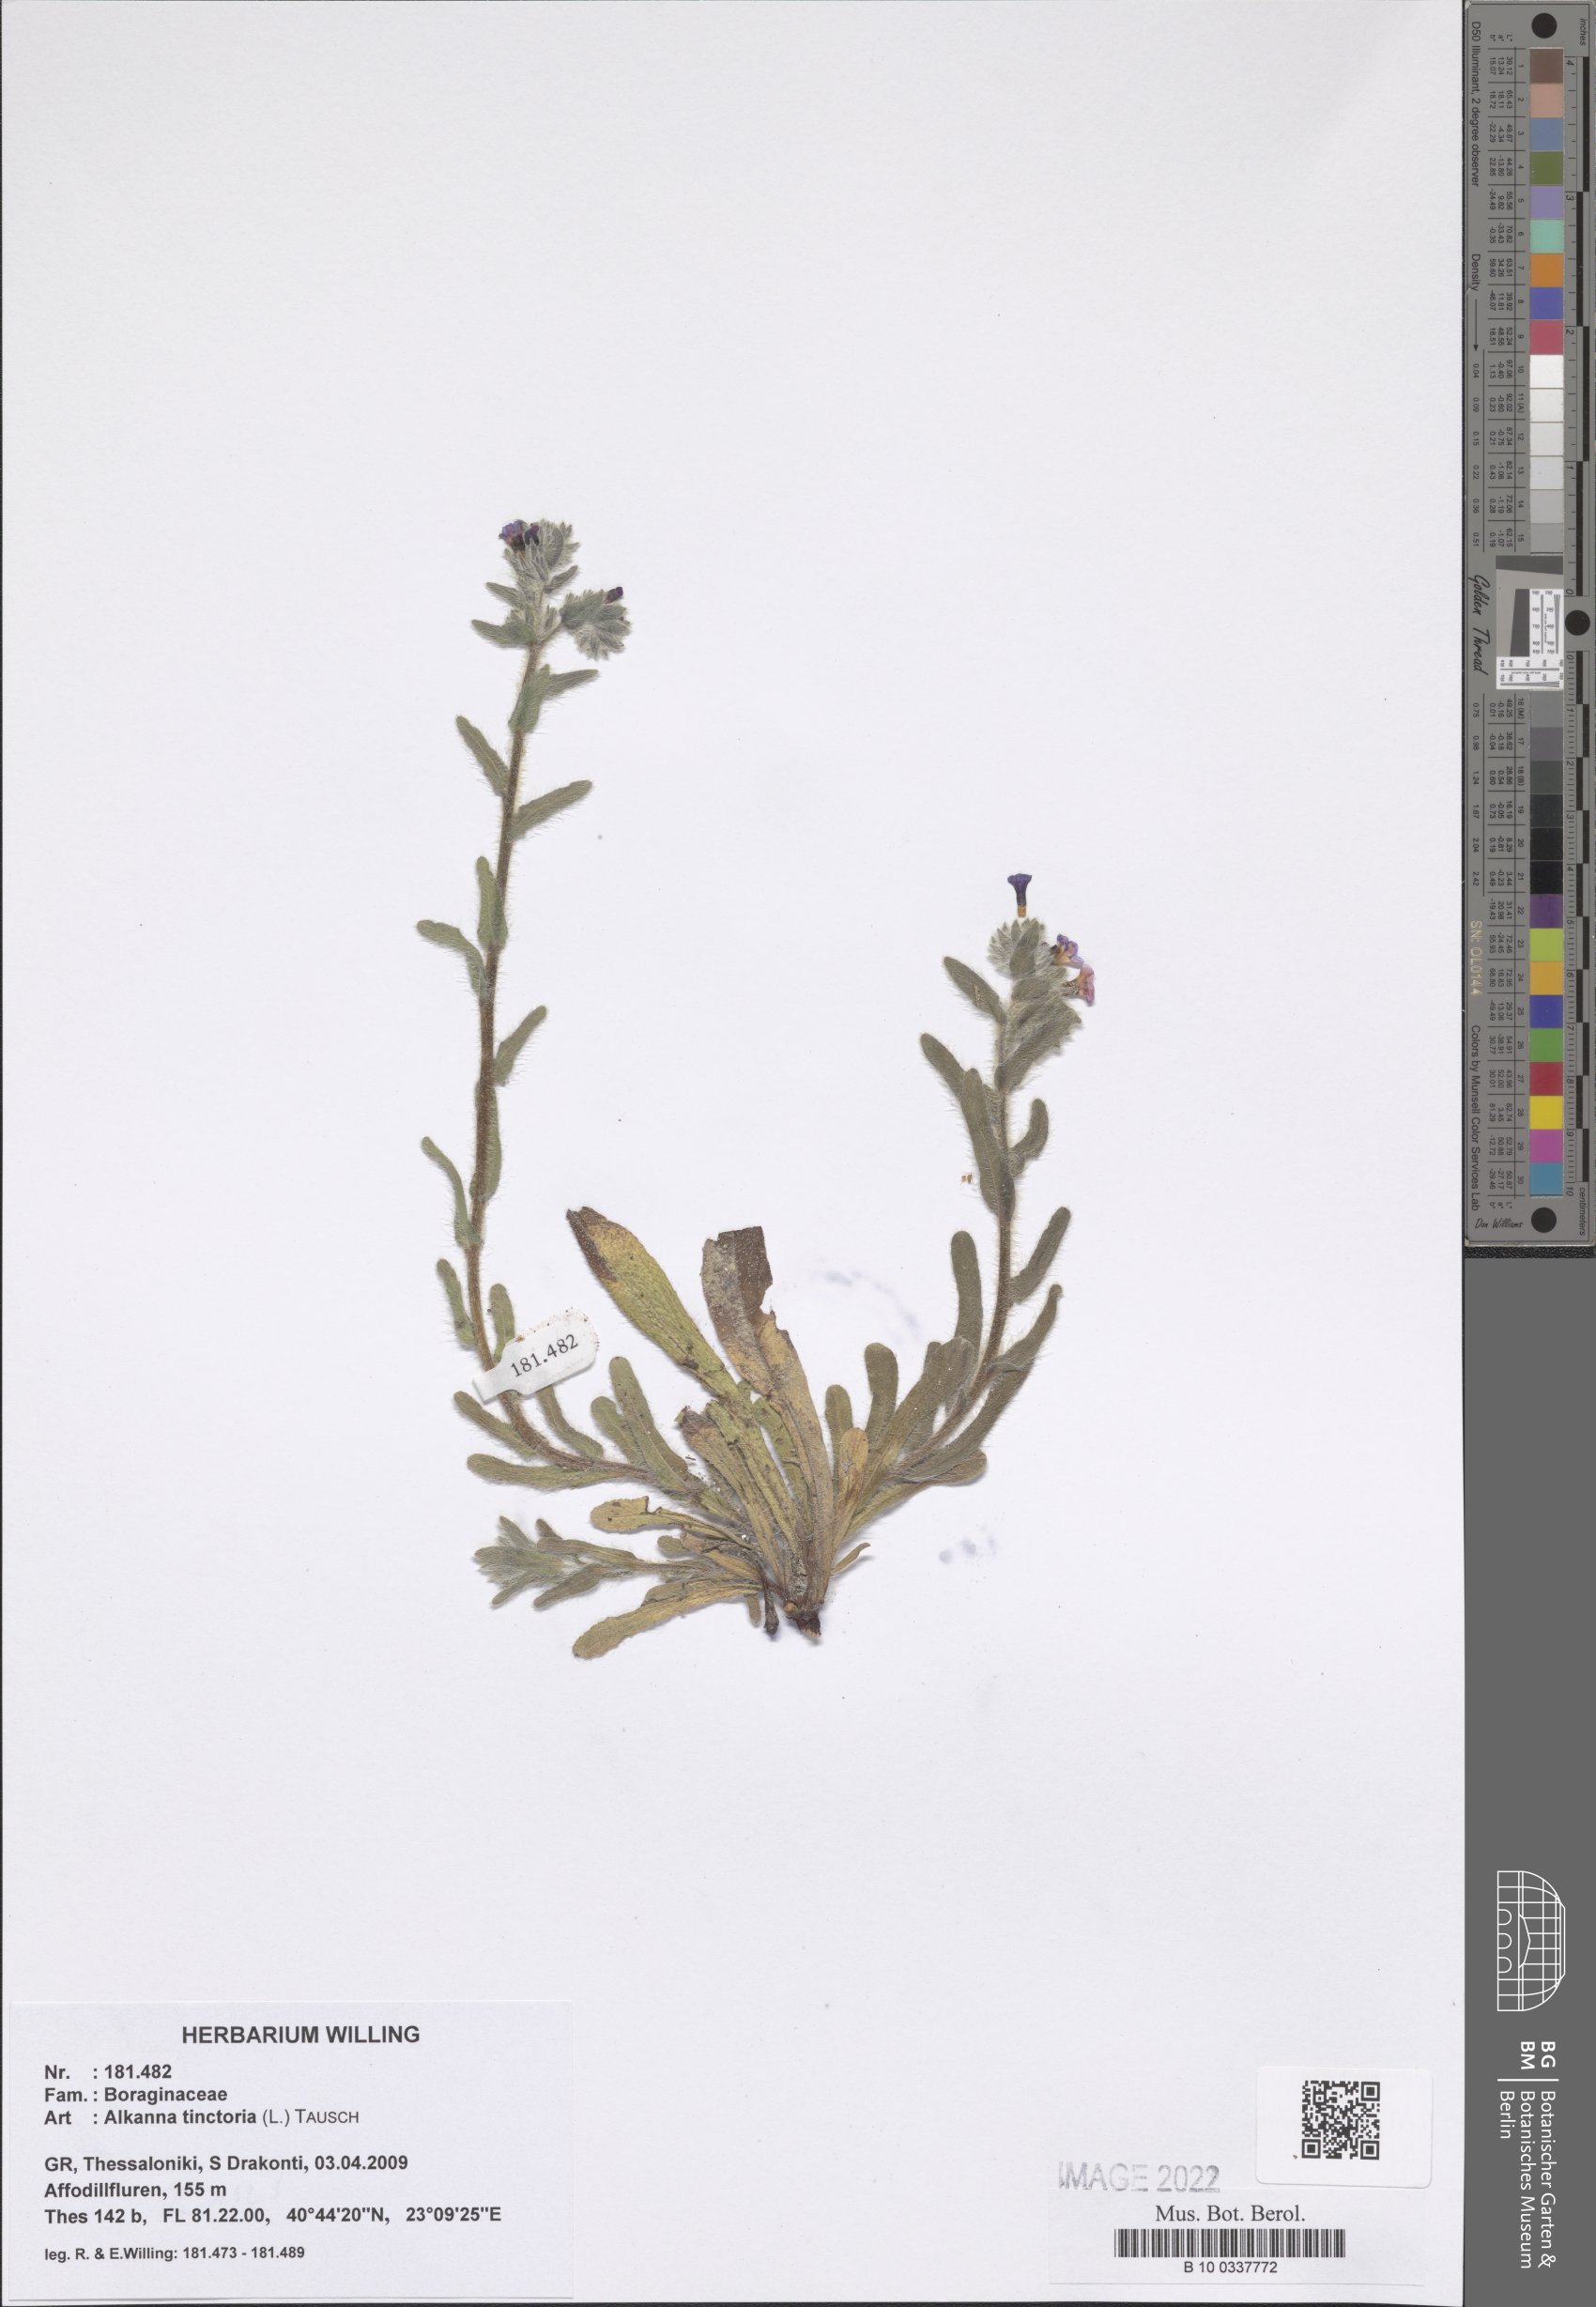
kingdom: Plantae
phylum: Tracheophyta
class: Magnoliopsida
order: Boraginales
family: Boraginaceae
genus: Alkanna
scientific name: Alkanna tinctoria
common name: Dyer's-alkanet
